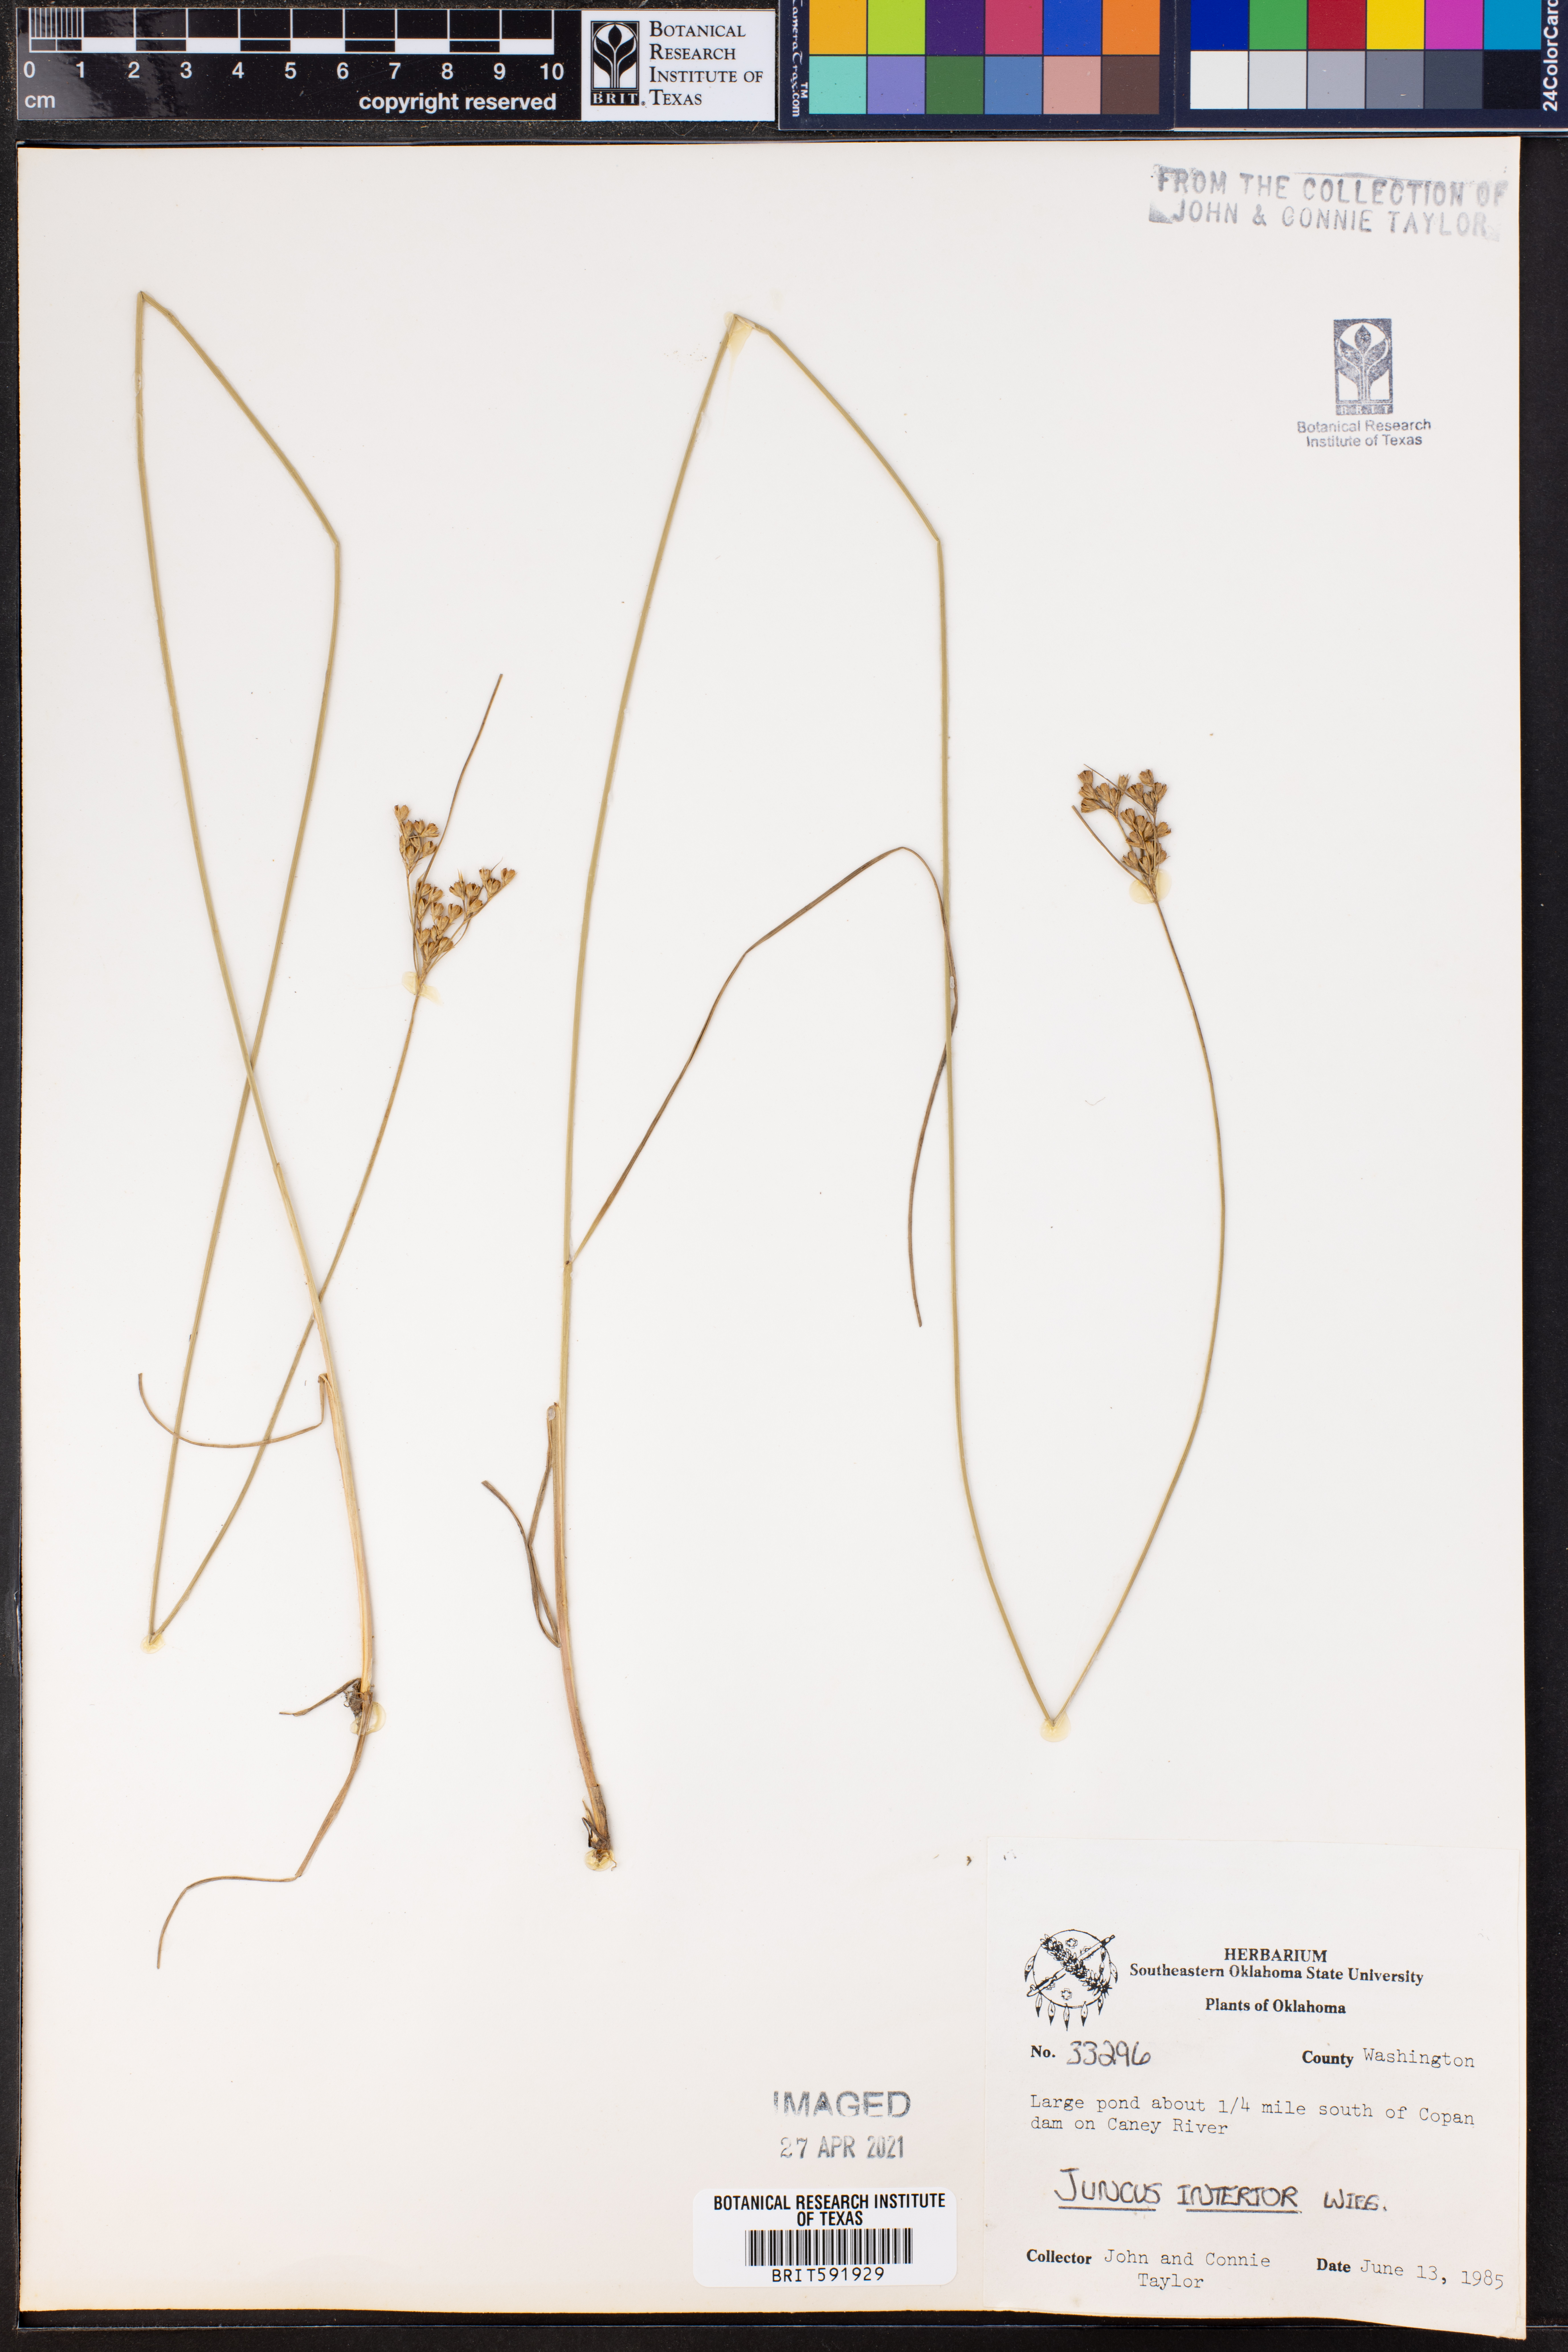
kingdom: Plantae
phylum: Tracheophyta
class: Liliopsida
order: Poales
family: Juncaceae
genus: Juncus
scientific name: Juncus interior
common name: Interior rush
